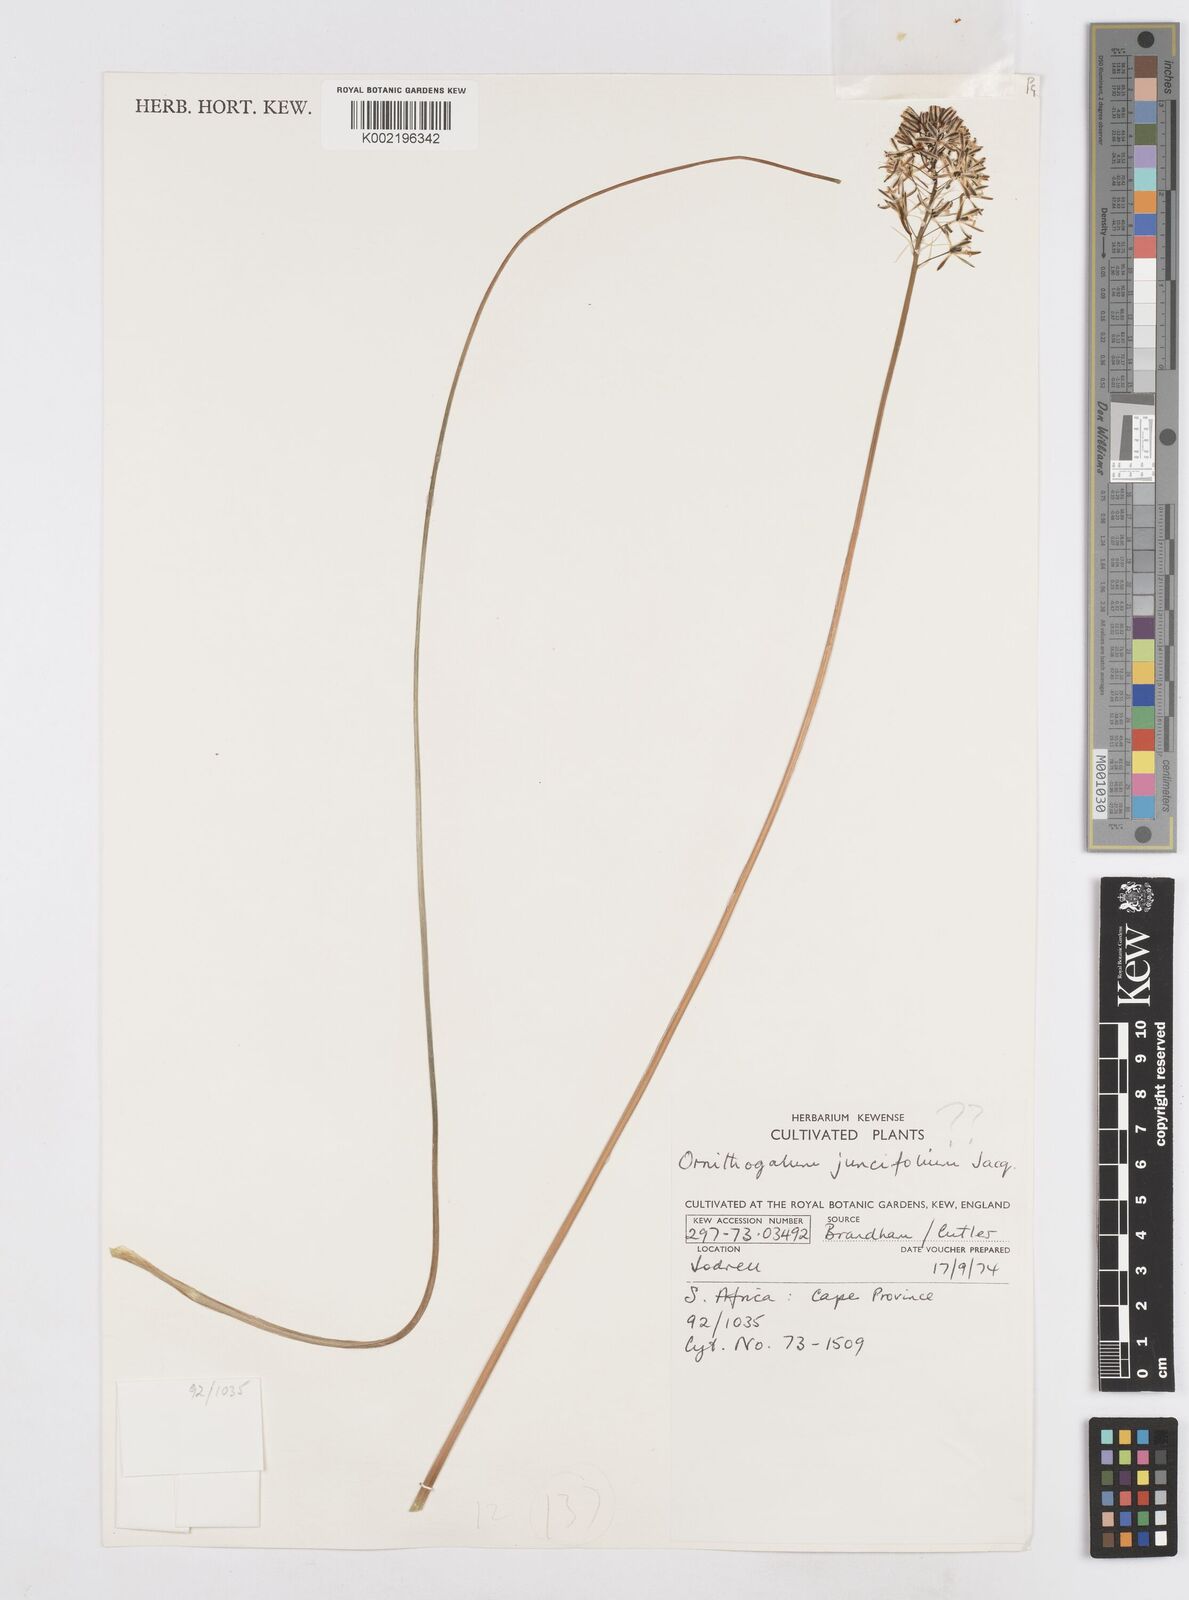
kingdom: Plantae
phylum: Tracheophyta
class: Liliopsida
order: Asparagales
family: Asparagaceae
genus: Ornithogalum
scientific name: Ornithogalum juncifolium
